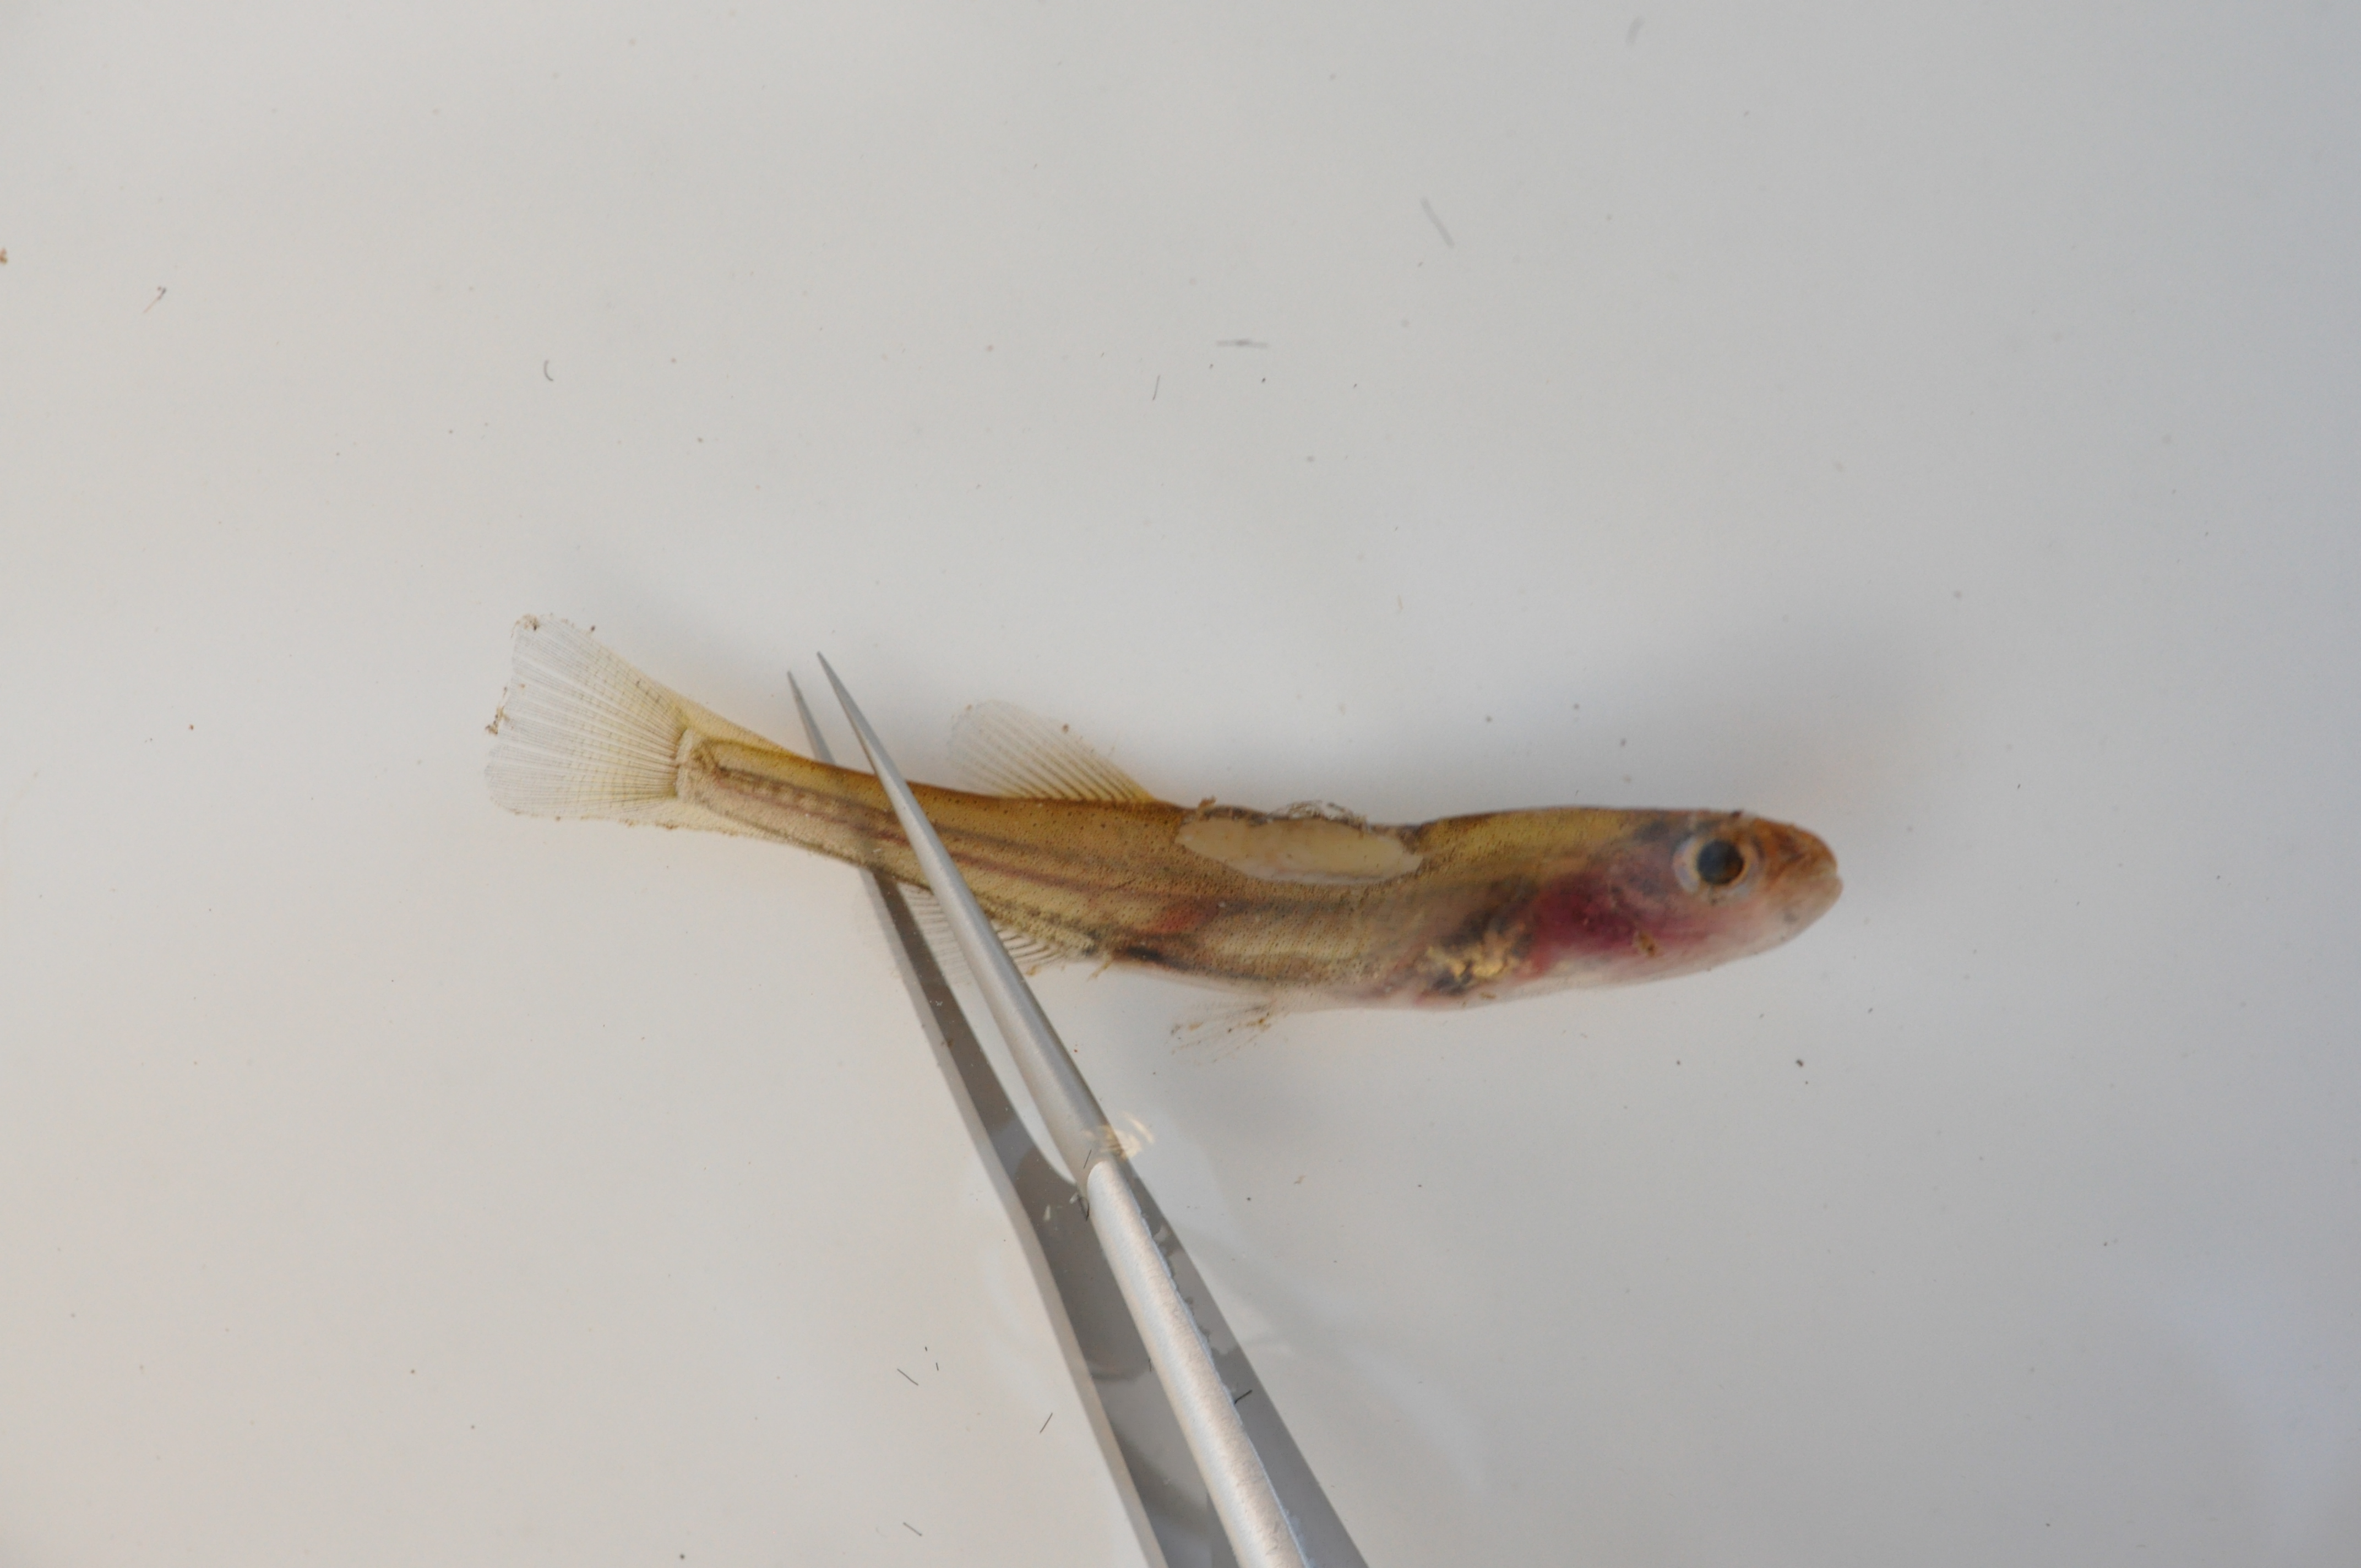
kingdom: Animalia
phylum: Chordata
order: Osmeriformes
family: Galaxiidae
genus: Galaxias
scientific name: Galaxias zebratus
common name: Cape galaxias
